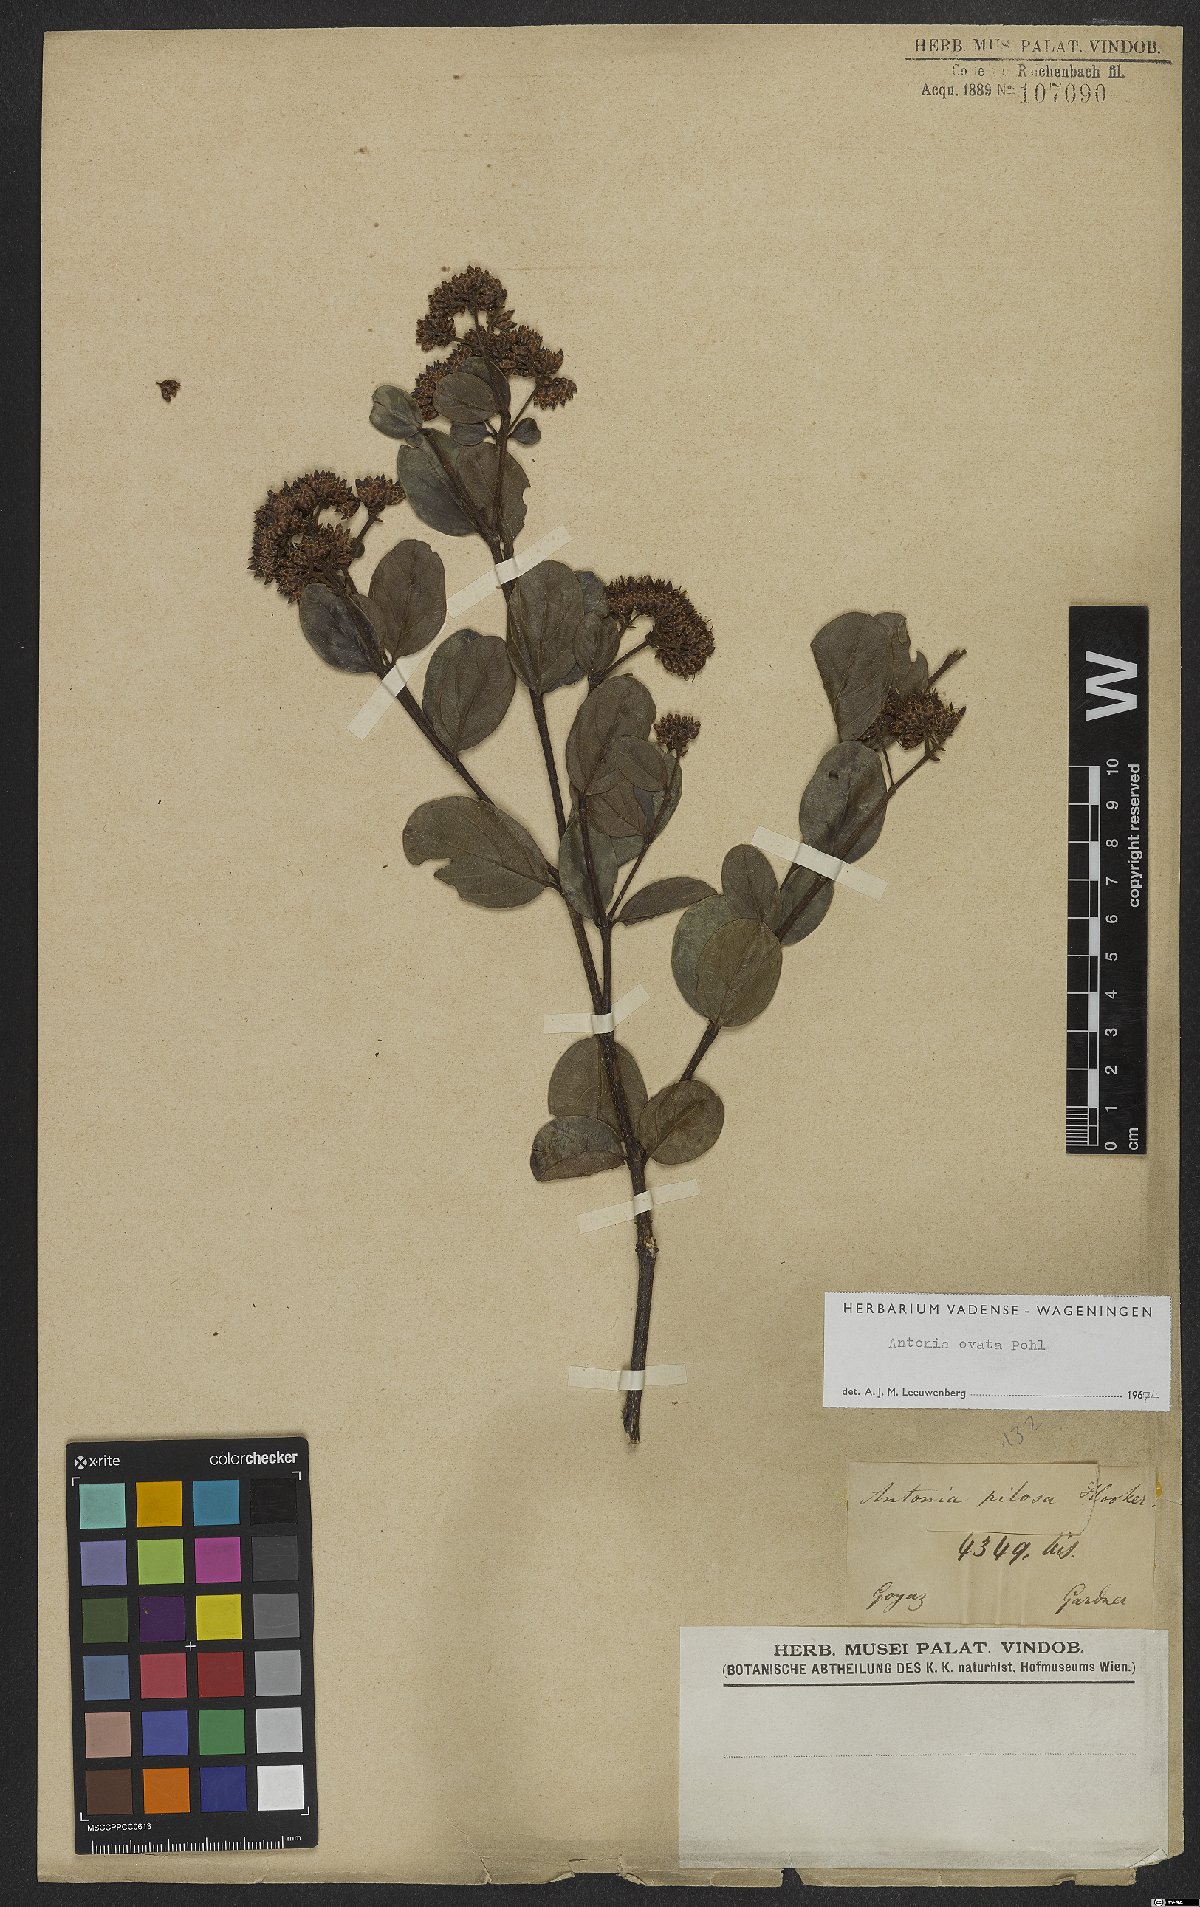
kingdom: Plantae
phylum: Tracheophyta
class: Magnoliopsida
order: Gentianales
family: Loganiaceae
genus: Antonia
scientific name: Antonia ovata
